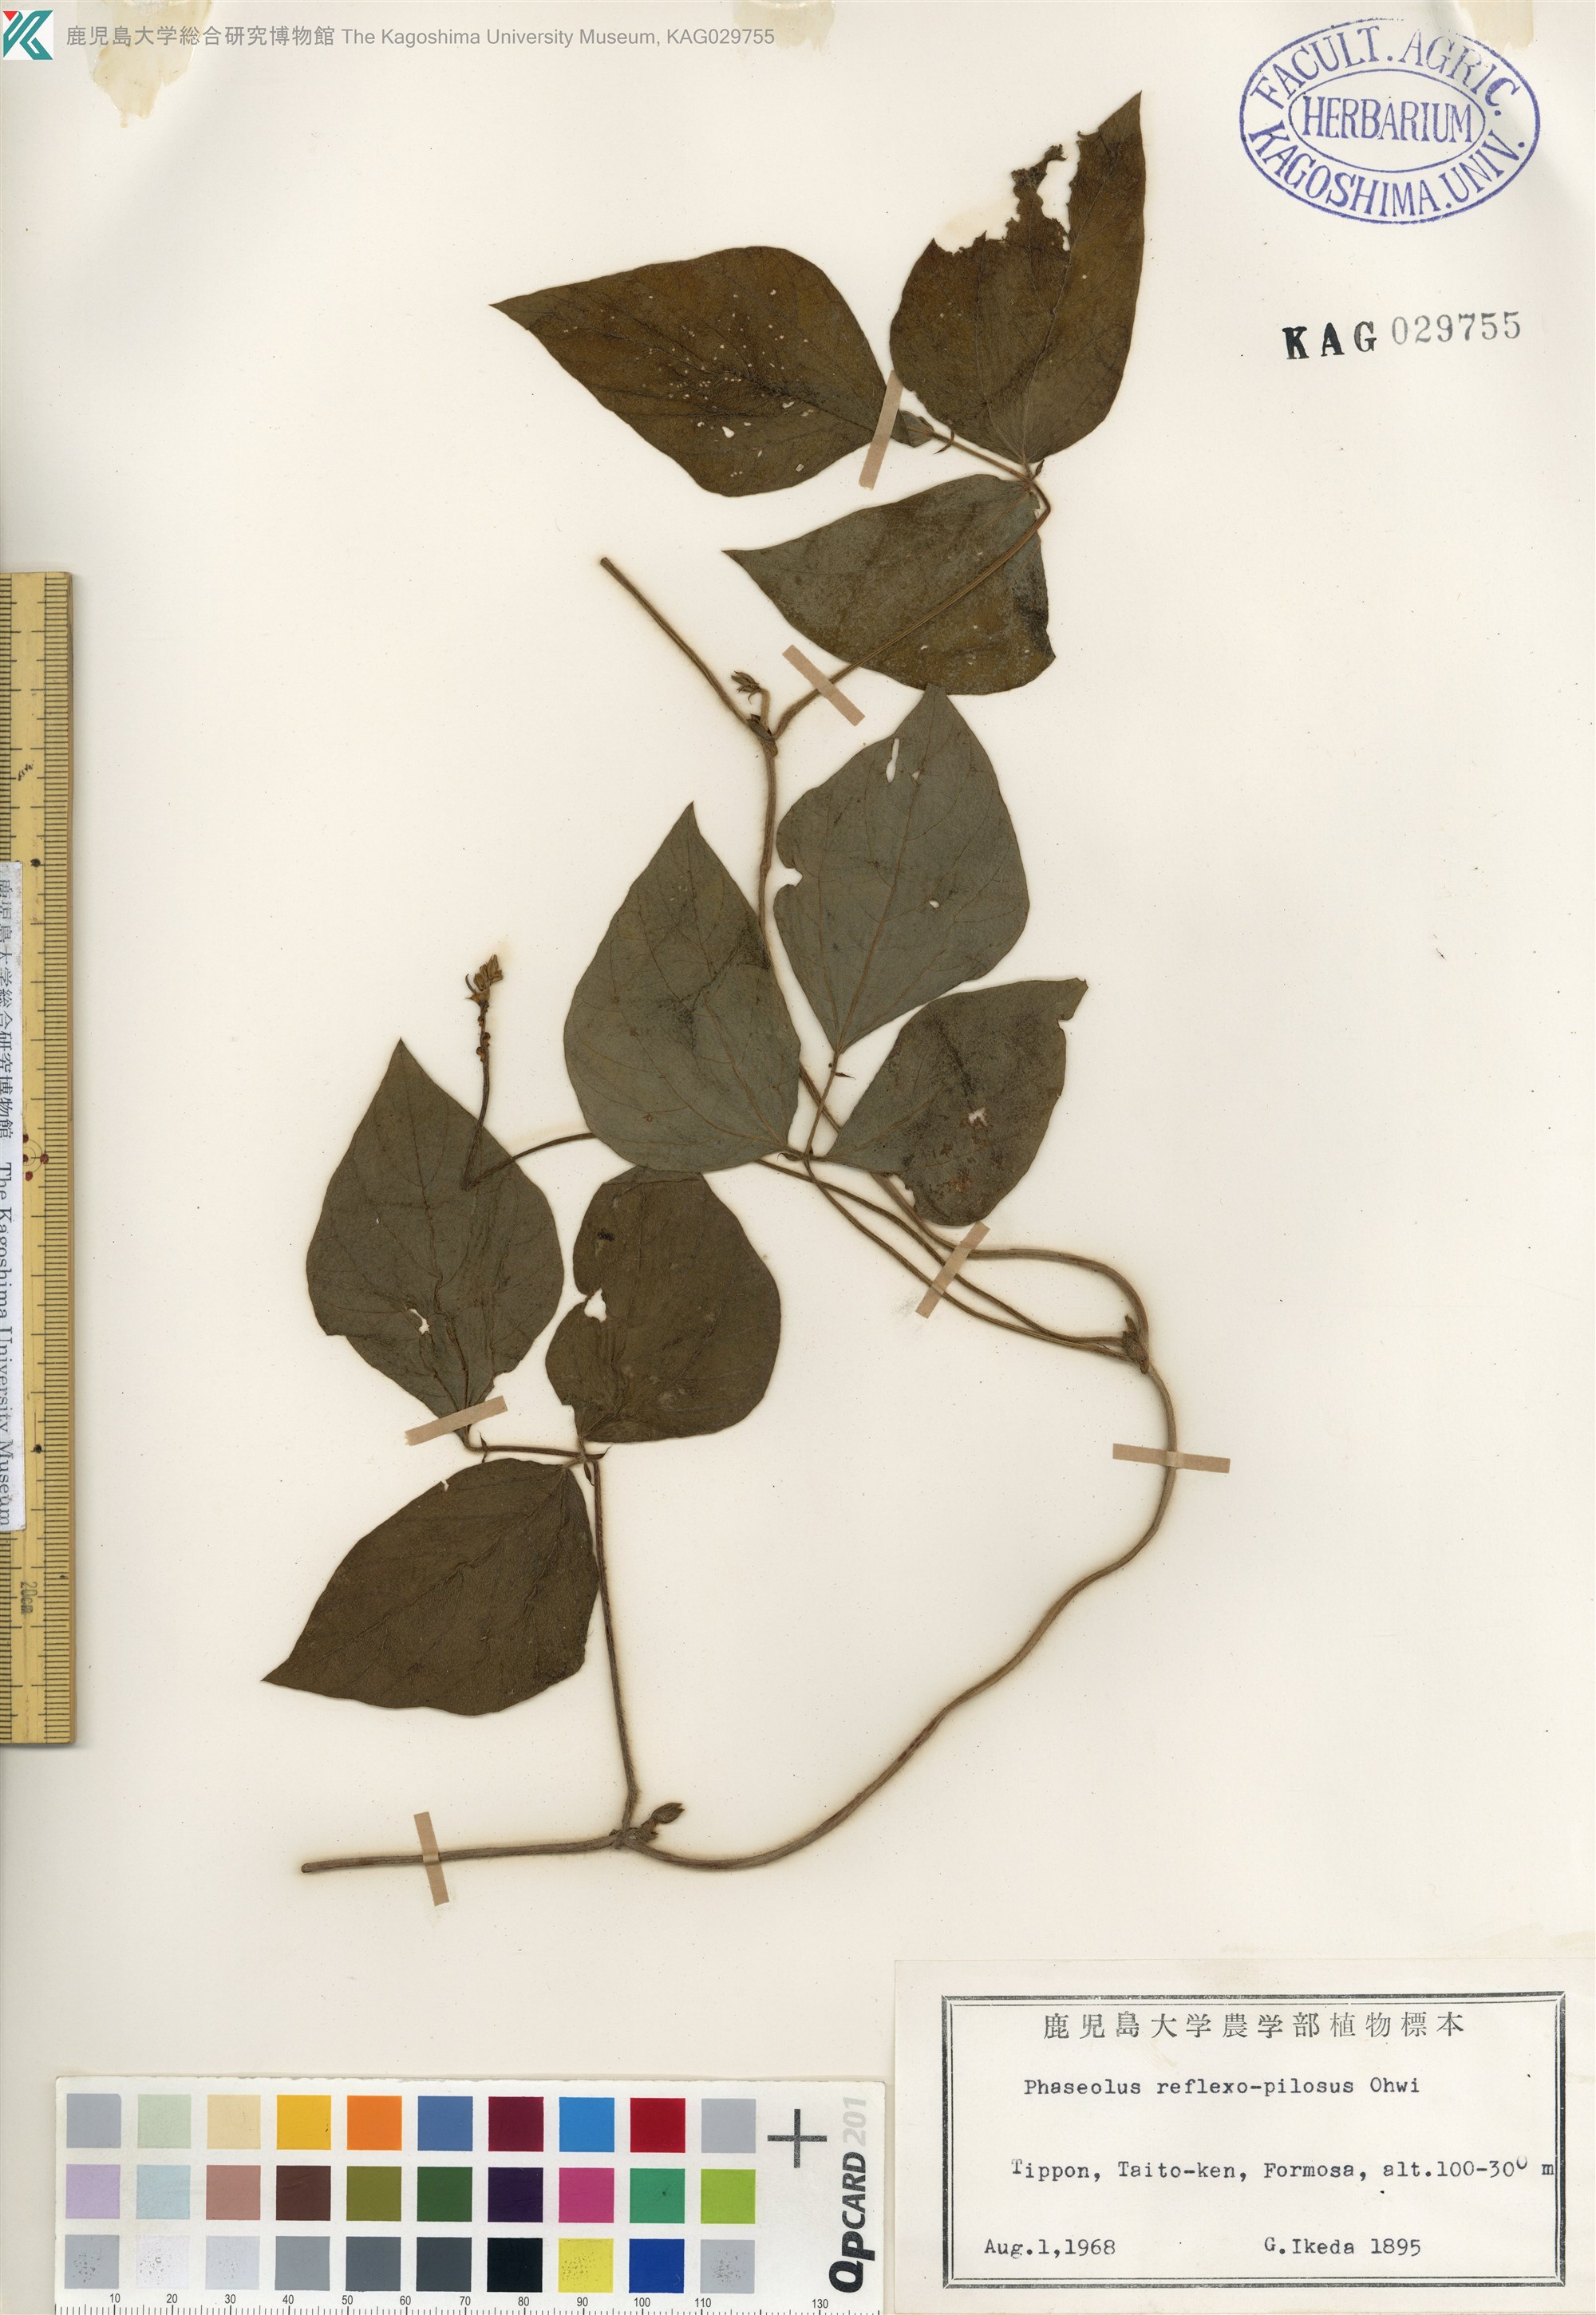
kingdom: Plantae
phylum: Tracheophyta
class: Magnoliopsida
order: Fabales
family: Fabaceae
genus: Vigna
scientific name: Vigna reflexopilosa
